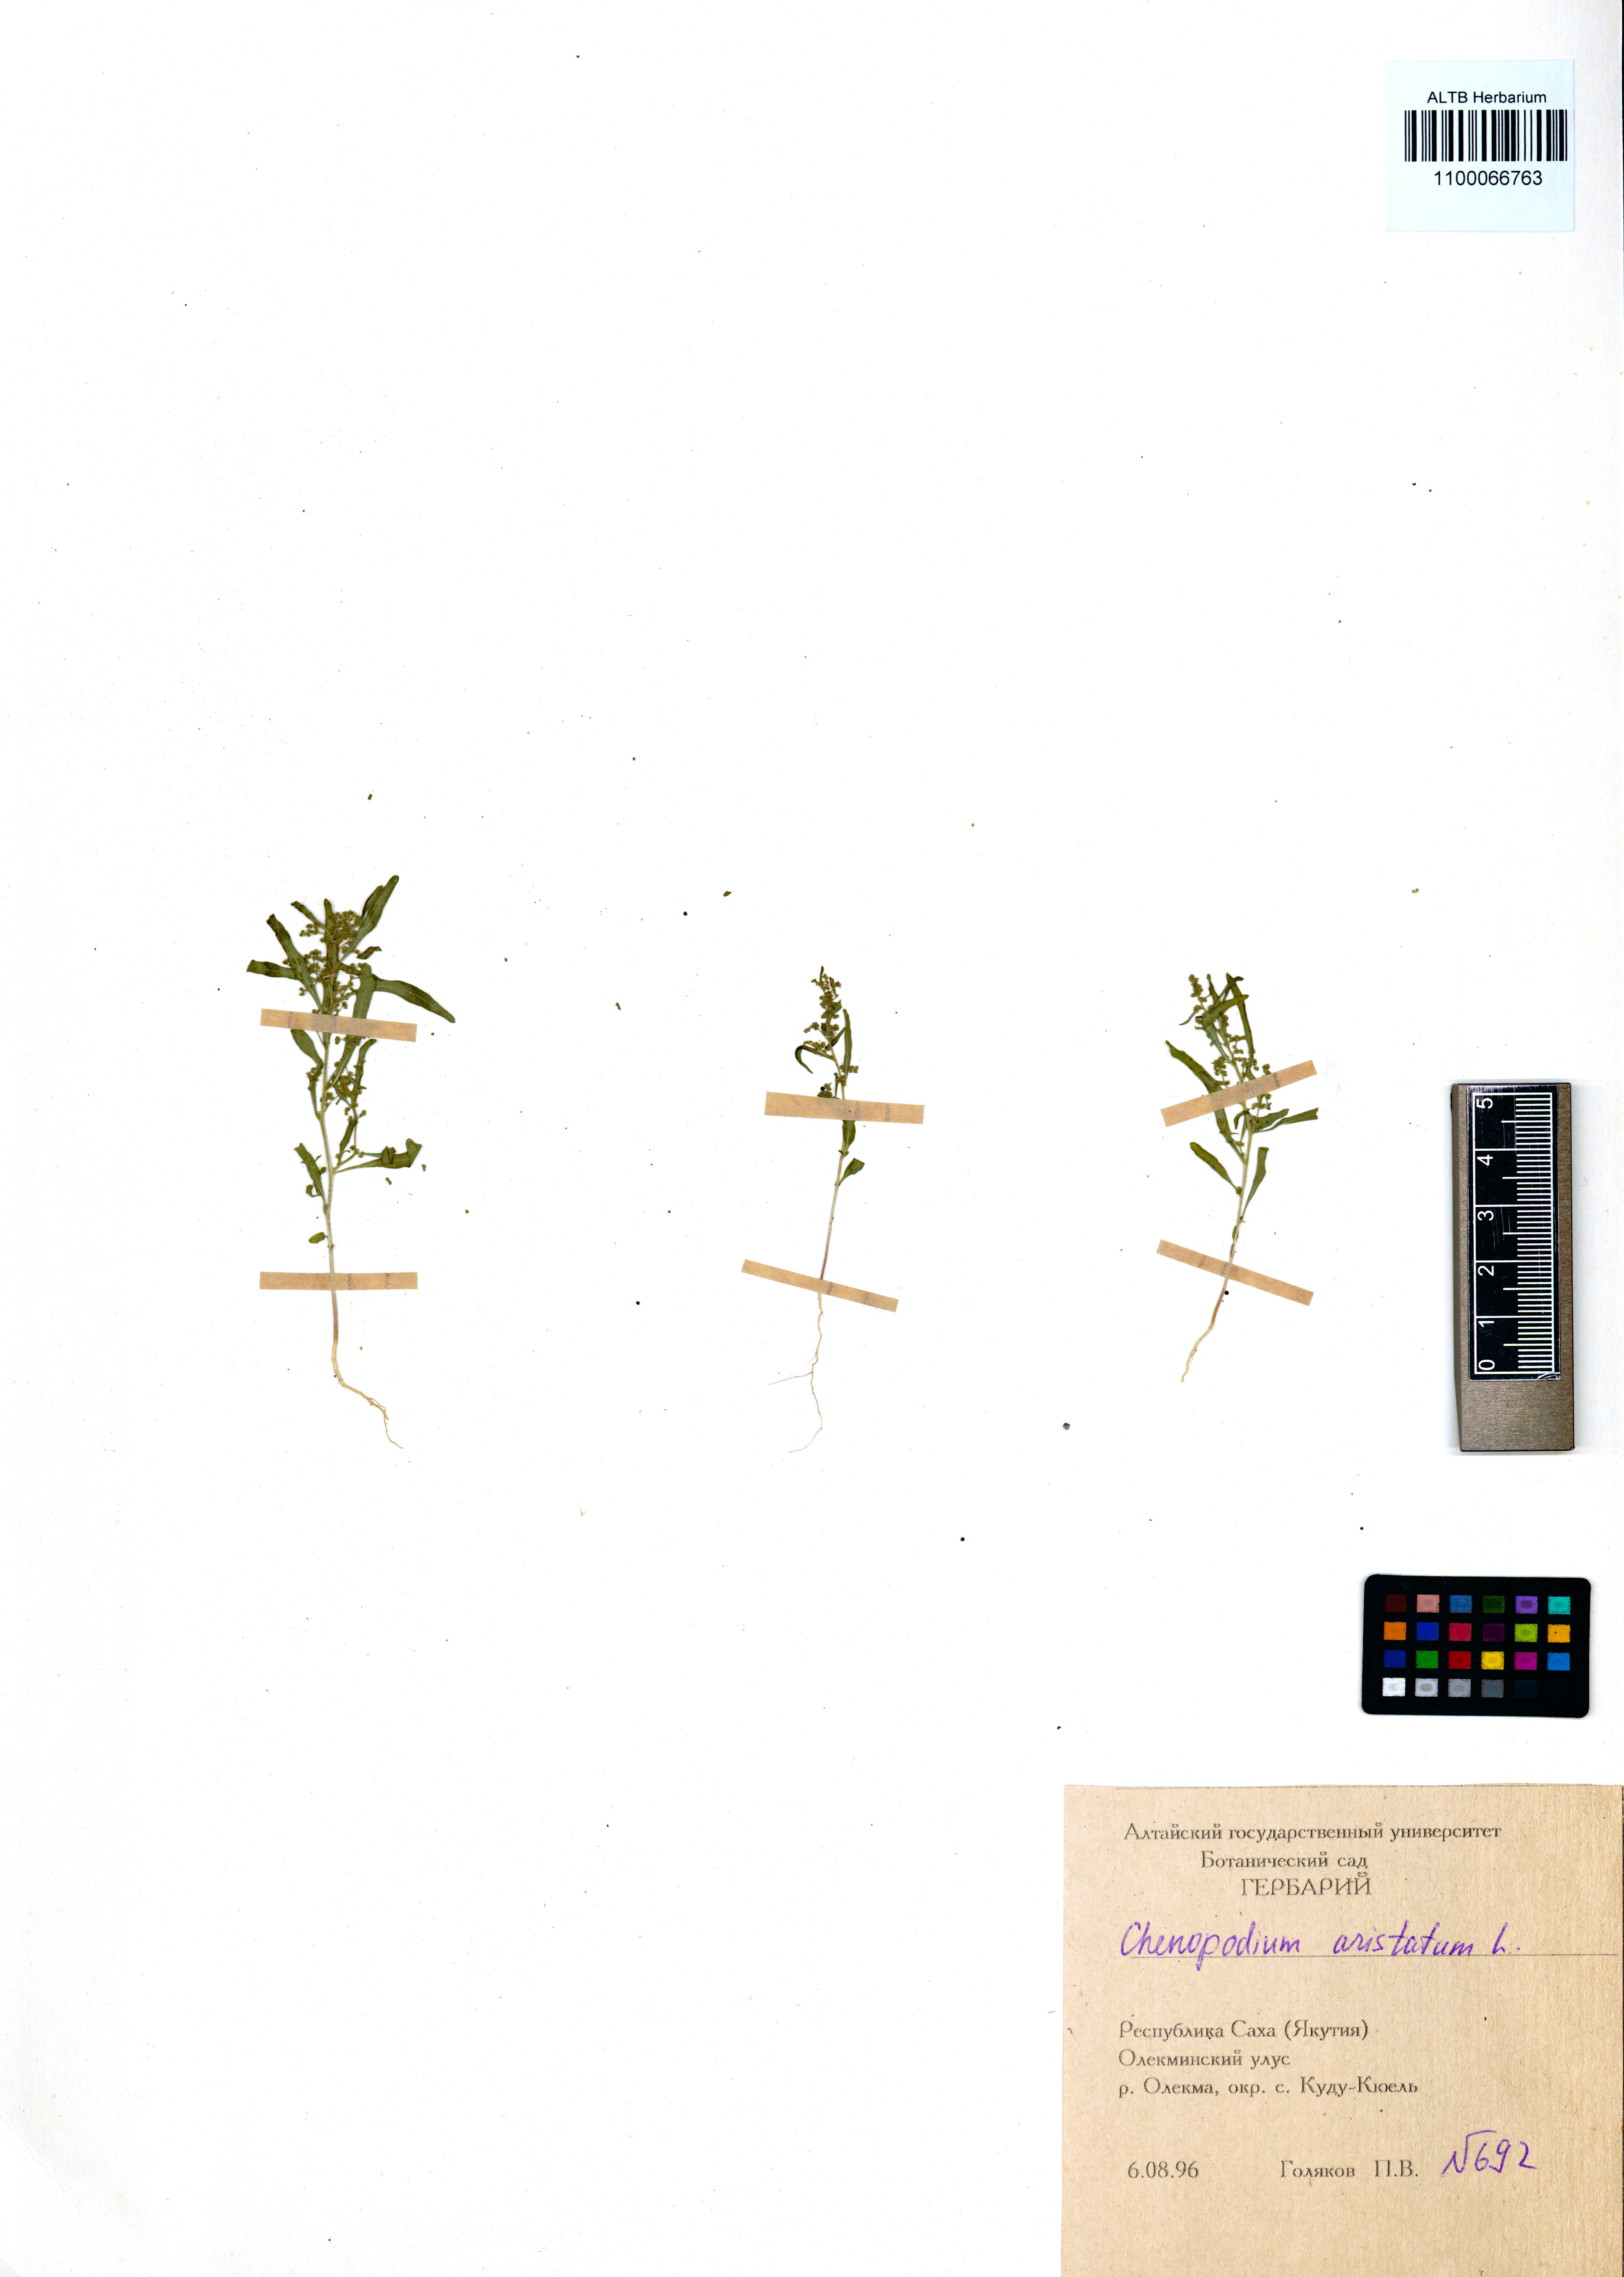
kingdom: Plantae
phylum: Tracheophyta
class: Magnoliopsida
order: Caryophyllales
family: Amaranthaceae
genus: Teloxys
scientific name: Teloxys aristata
